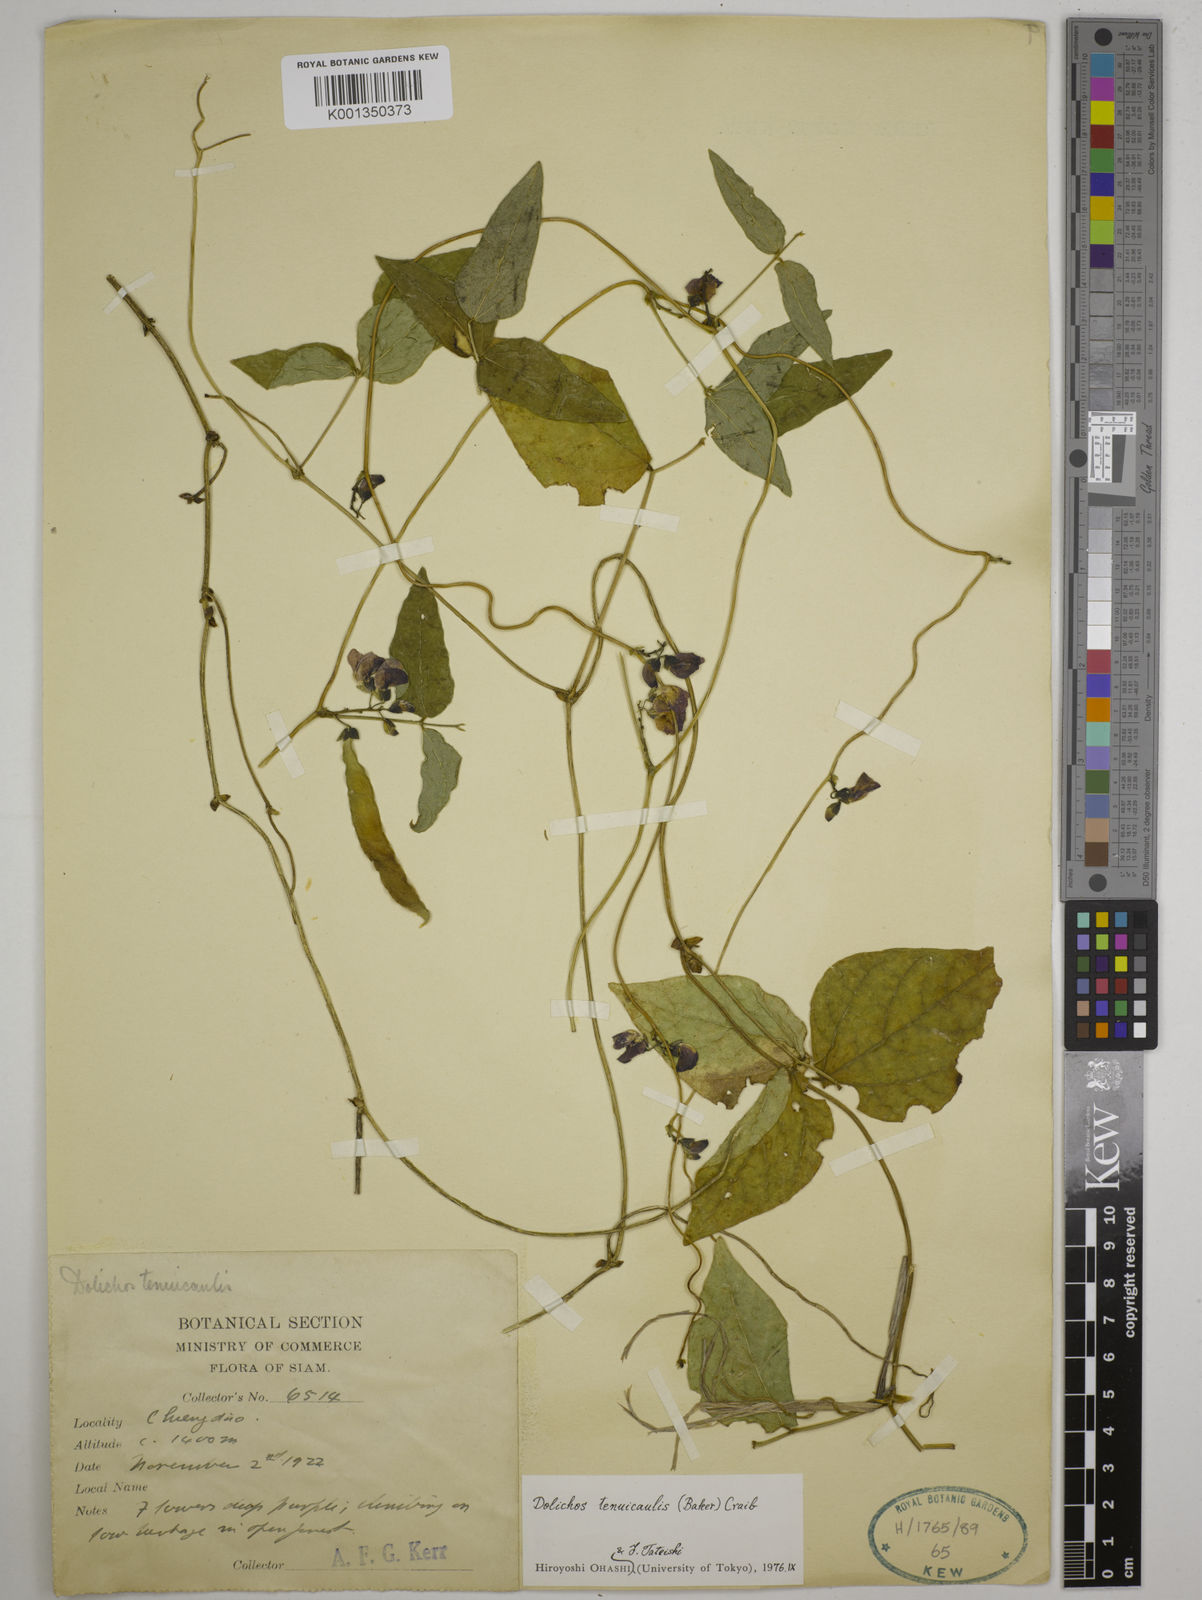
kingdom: Plantae
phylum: Tracheophyta
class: Magnoliopsida
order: Fabales
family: Fabaceae
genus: Dolichos
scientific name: Dolichos tenuicaulis
